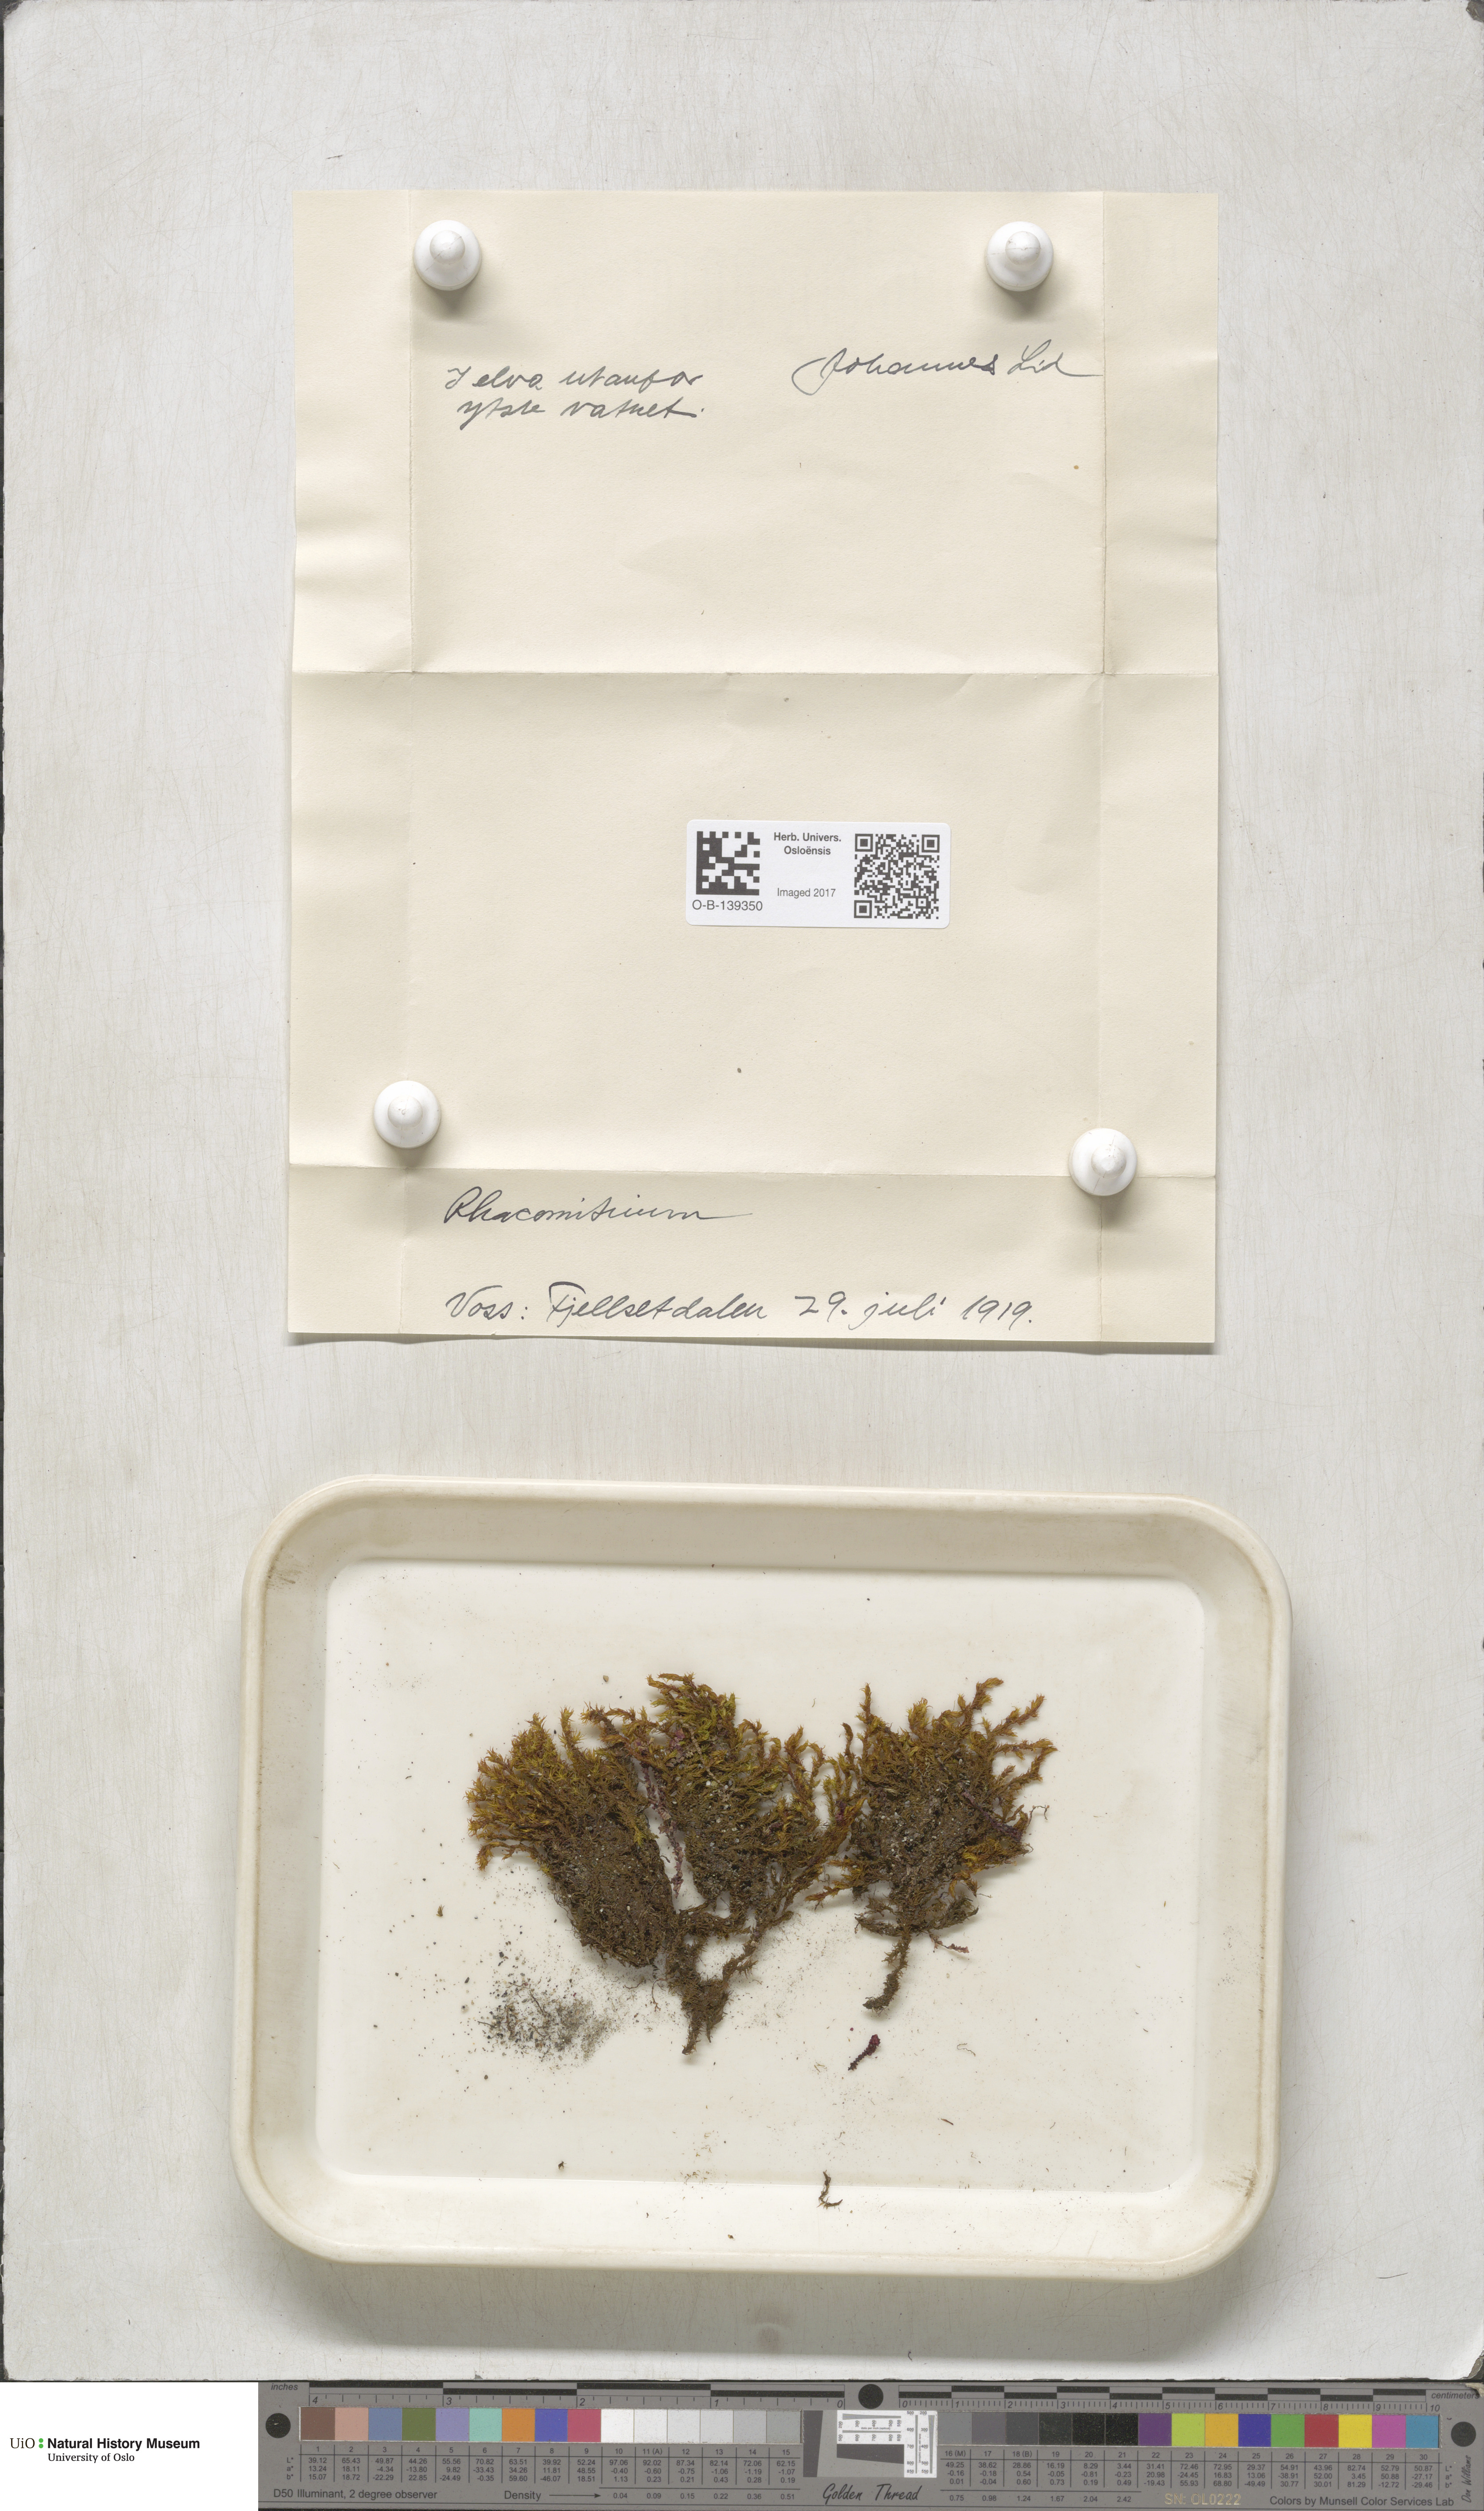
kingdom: Plantae
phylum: Bryophyta
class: Bryopsida
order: Grimmiales
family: Grimmiaceae
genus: Racomitrium
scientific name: Racomitrium
